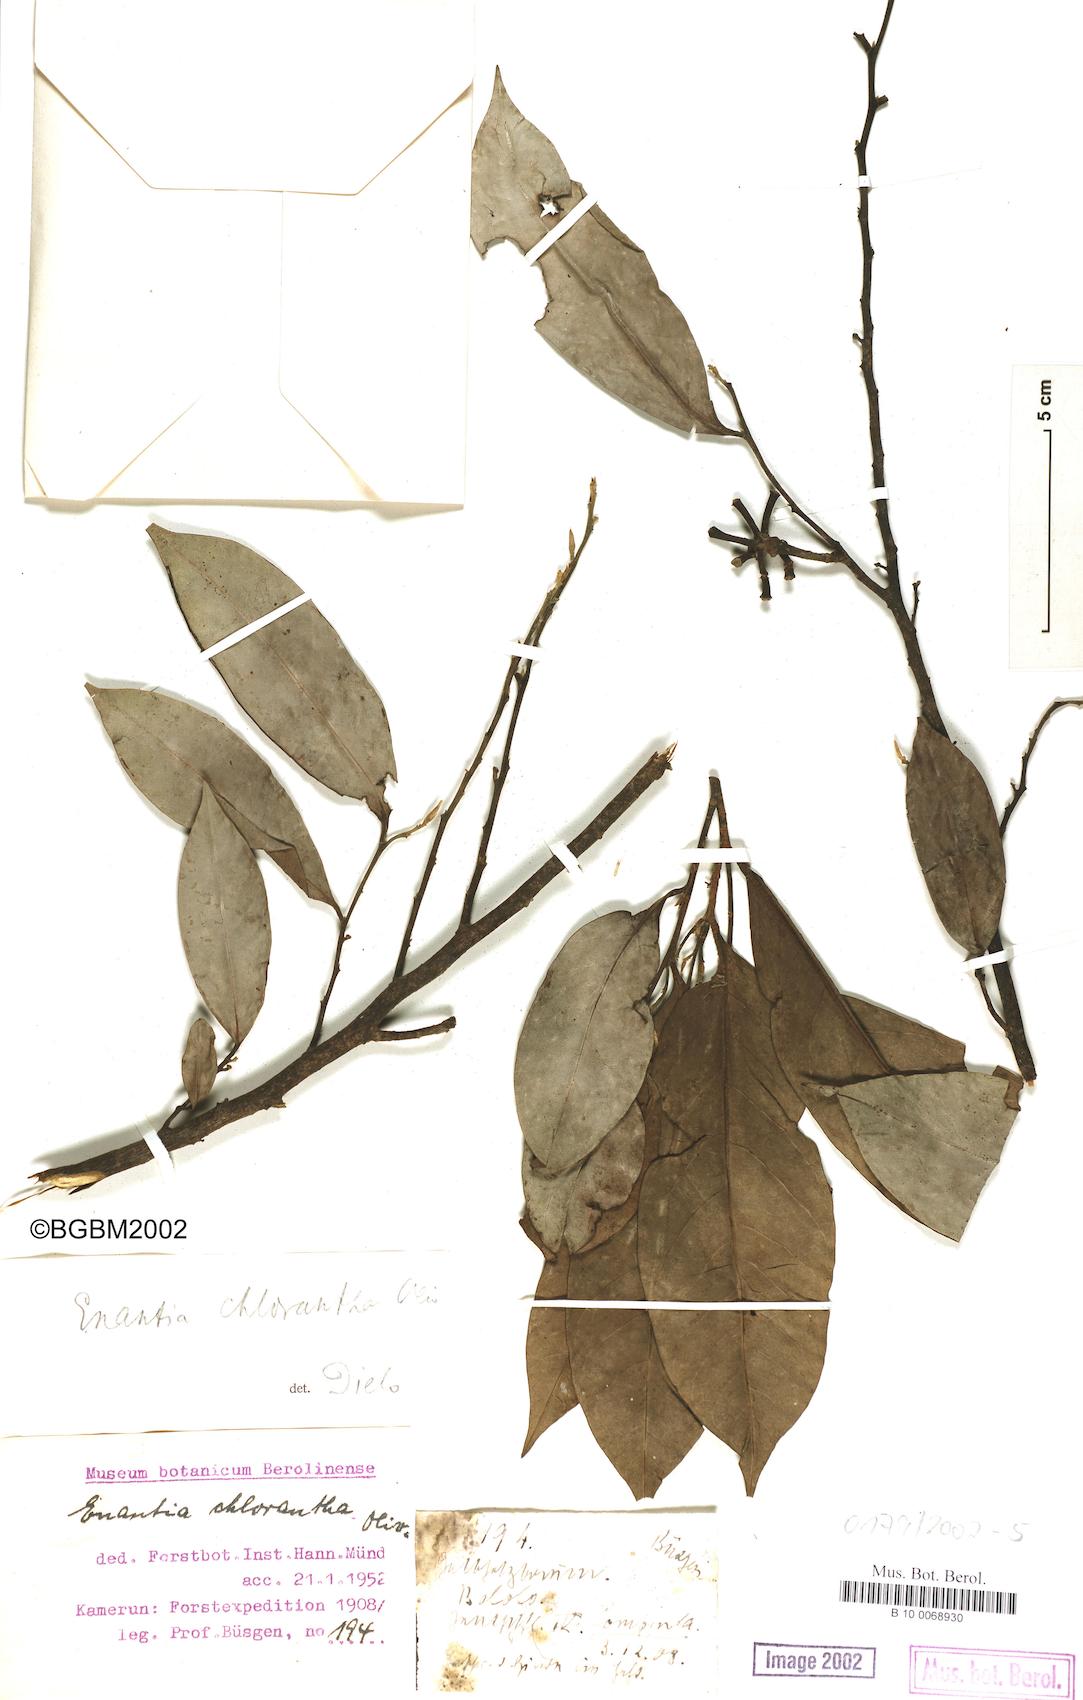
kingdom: Plantae
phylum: Tracheophyta
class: Magnoliopsida
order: Magnoliales
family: Annonaceae
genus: Annickia
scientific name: Annickia chlorantha
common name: African yellowwood
